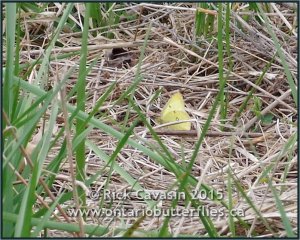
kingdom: Animalia
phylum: Arthropoda
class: Insecta
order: Lepidoptera
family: Pieridae
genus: Colias
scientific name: Colias philodice
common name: Clouded Sulphur
